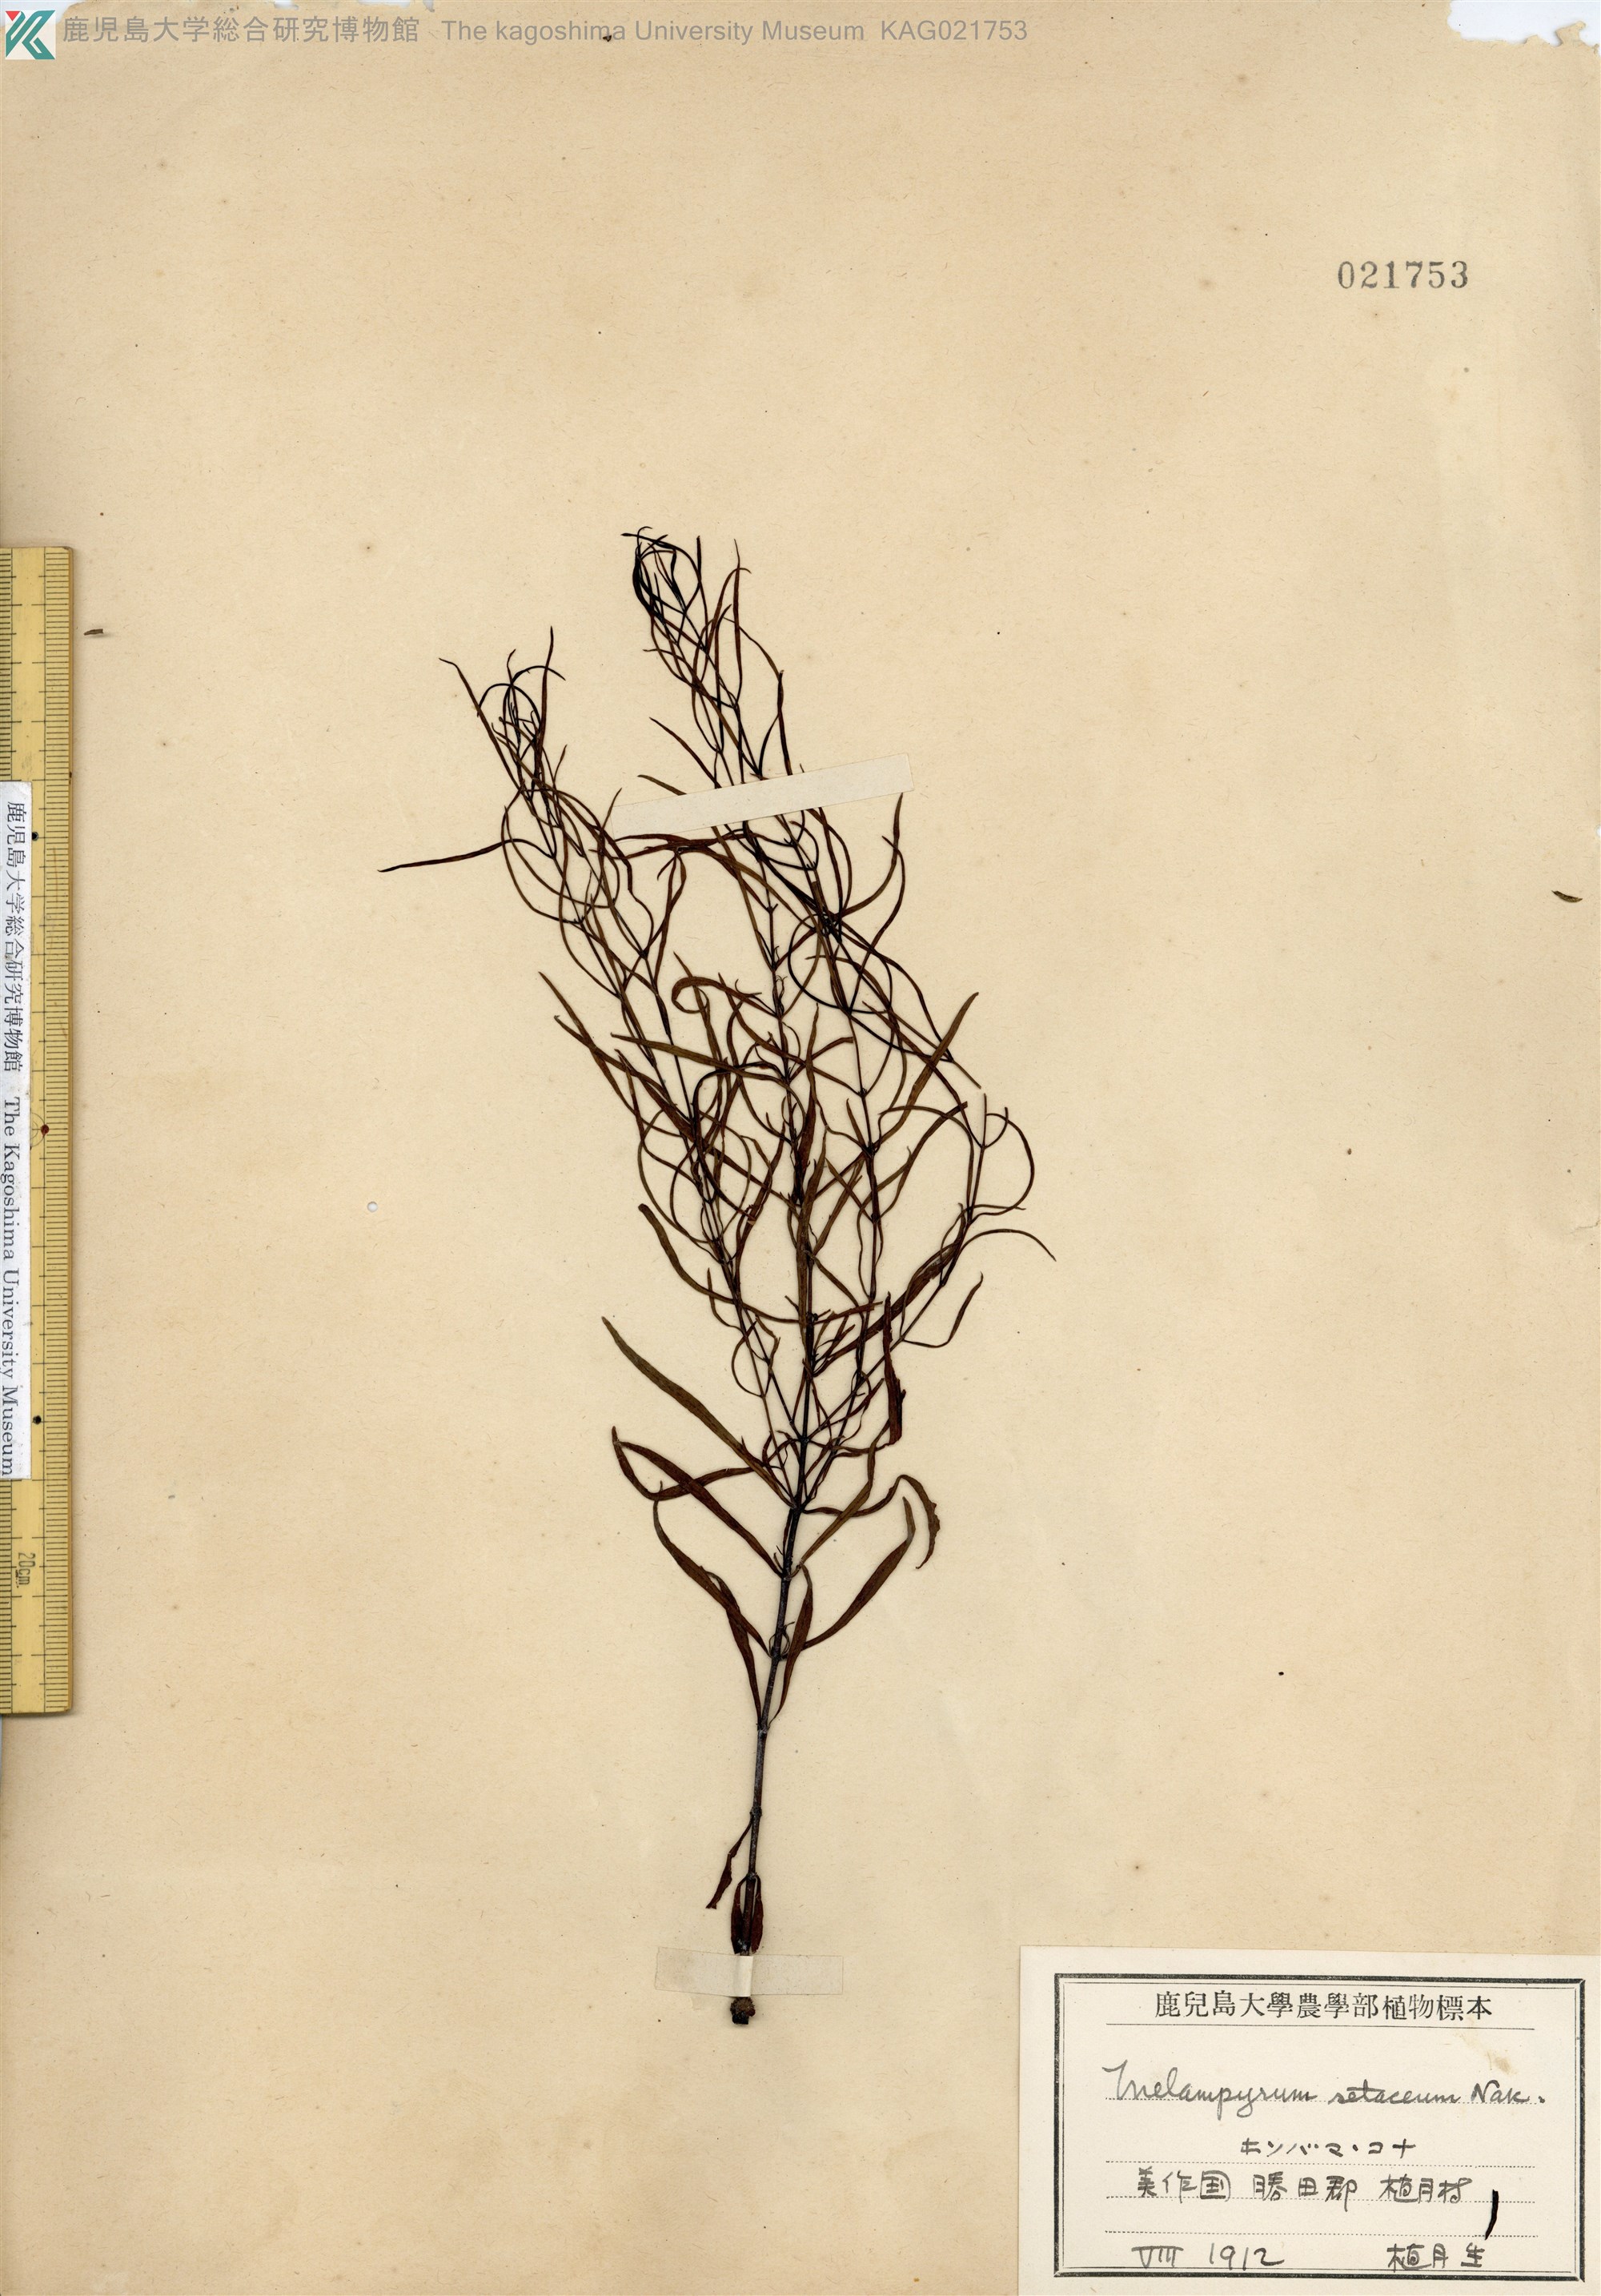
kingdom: Plantae
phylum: Tracheophyta
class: Magnoliopsida
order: Lamiales
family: Orobanchaceae
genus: Melampyrum
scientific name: Melampyrum setaceum
